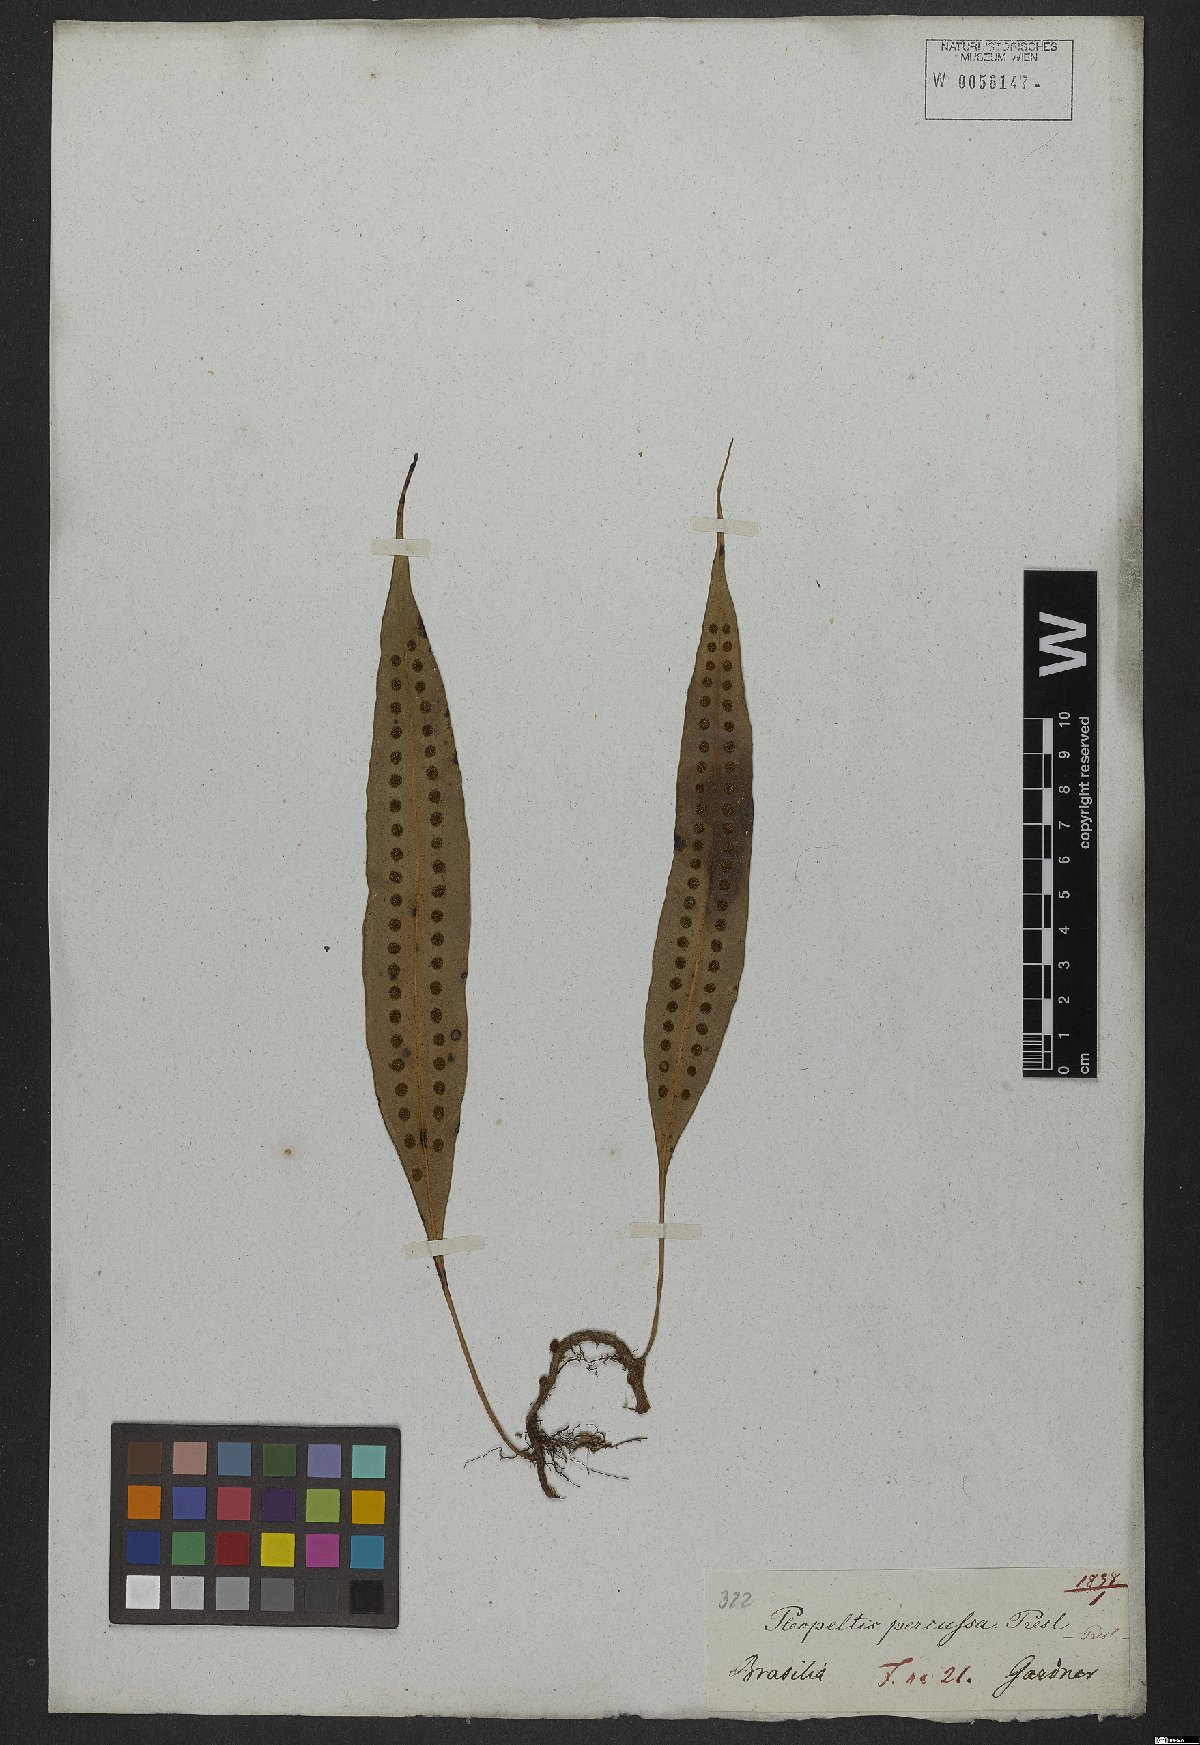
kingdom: Plantae
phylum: Tracheophyta
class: Polypodiopsida
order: Polypodiales
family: Polypodiaceae
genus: Microgramma
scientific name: Microgramma percussa
